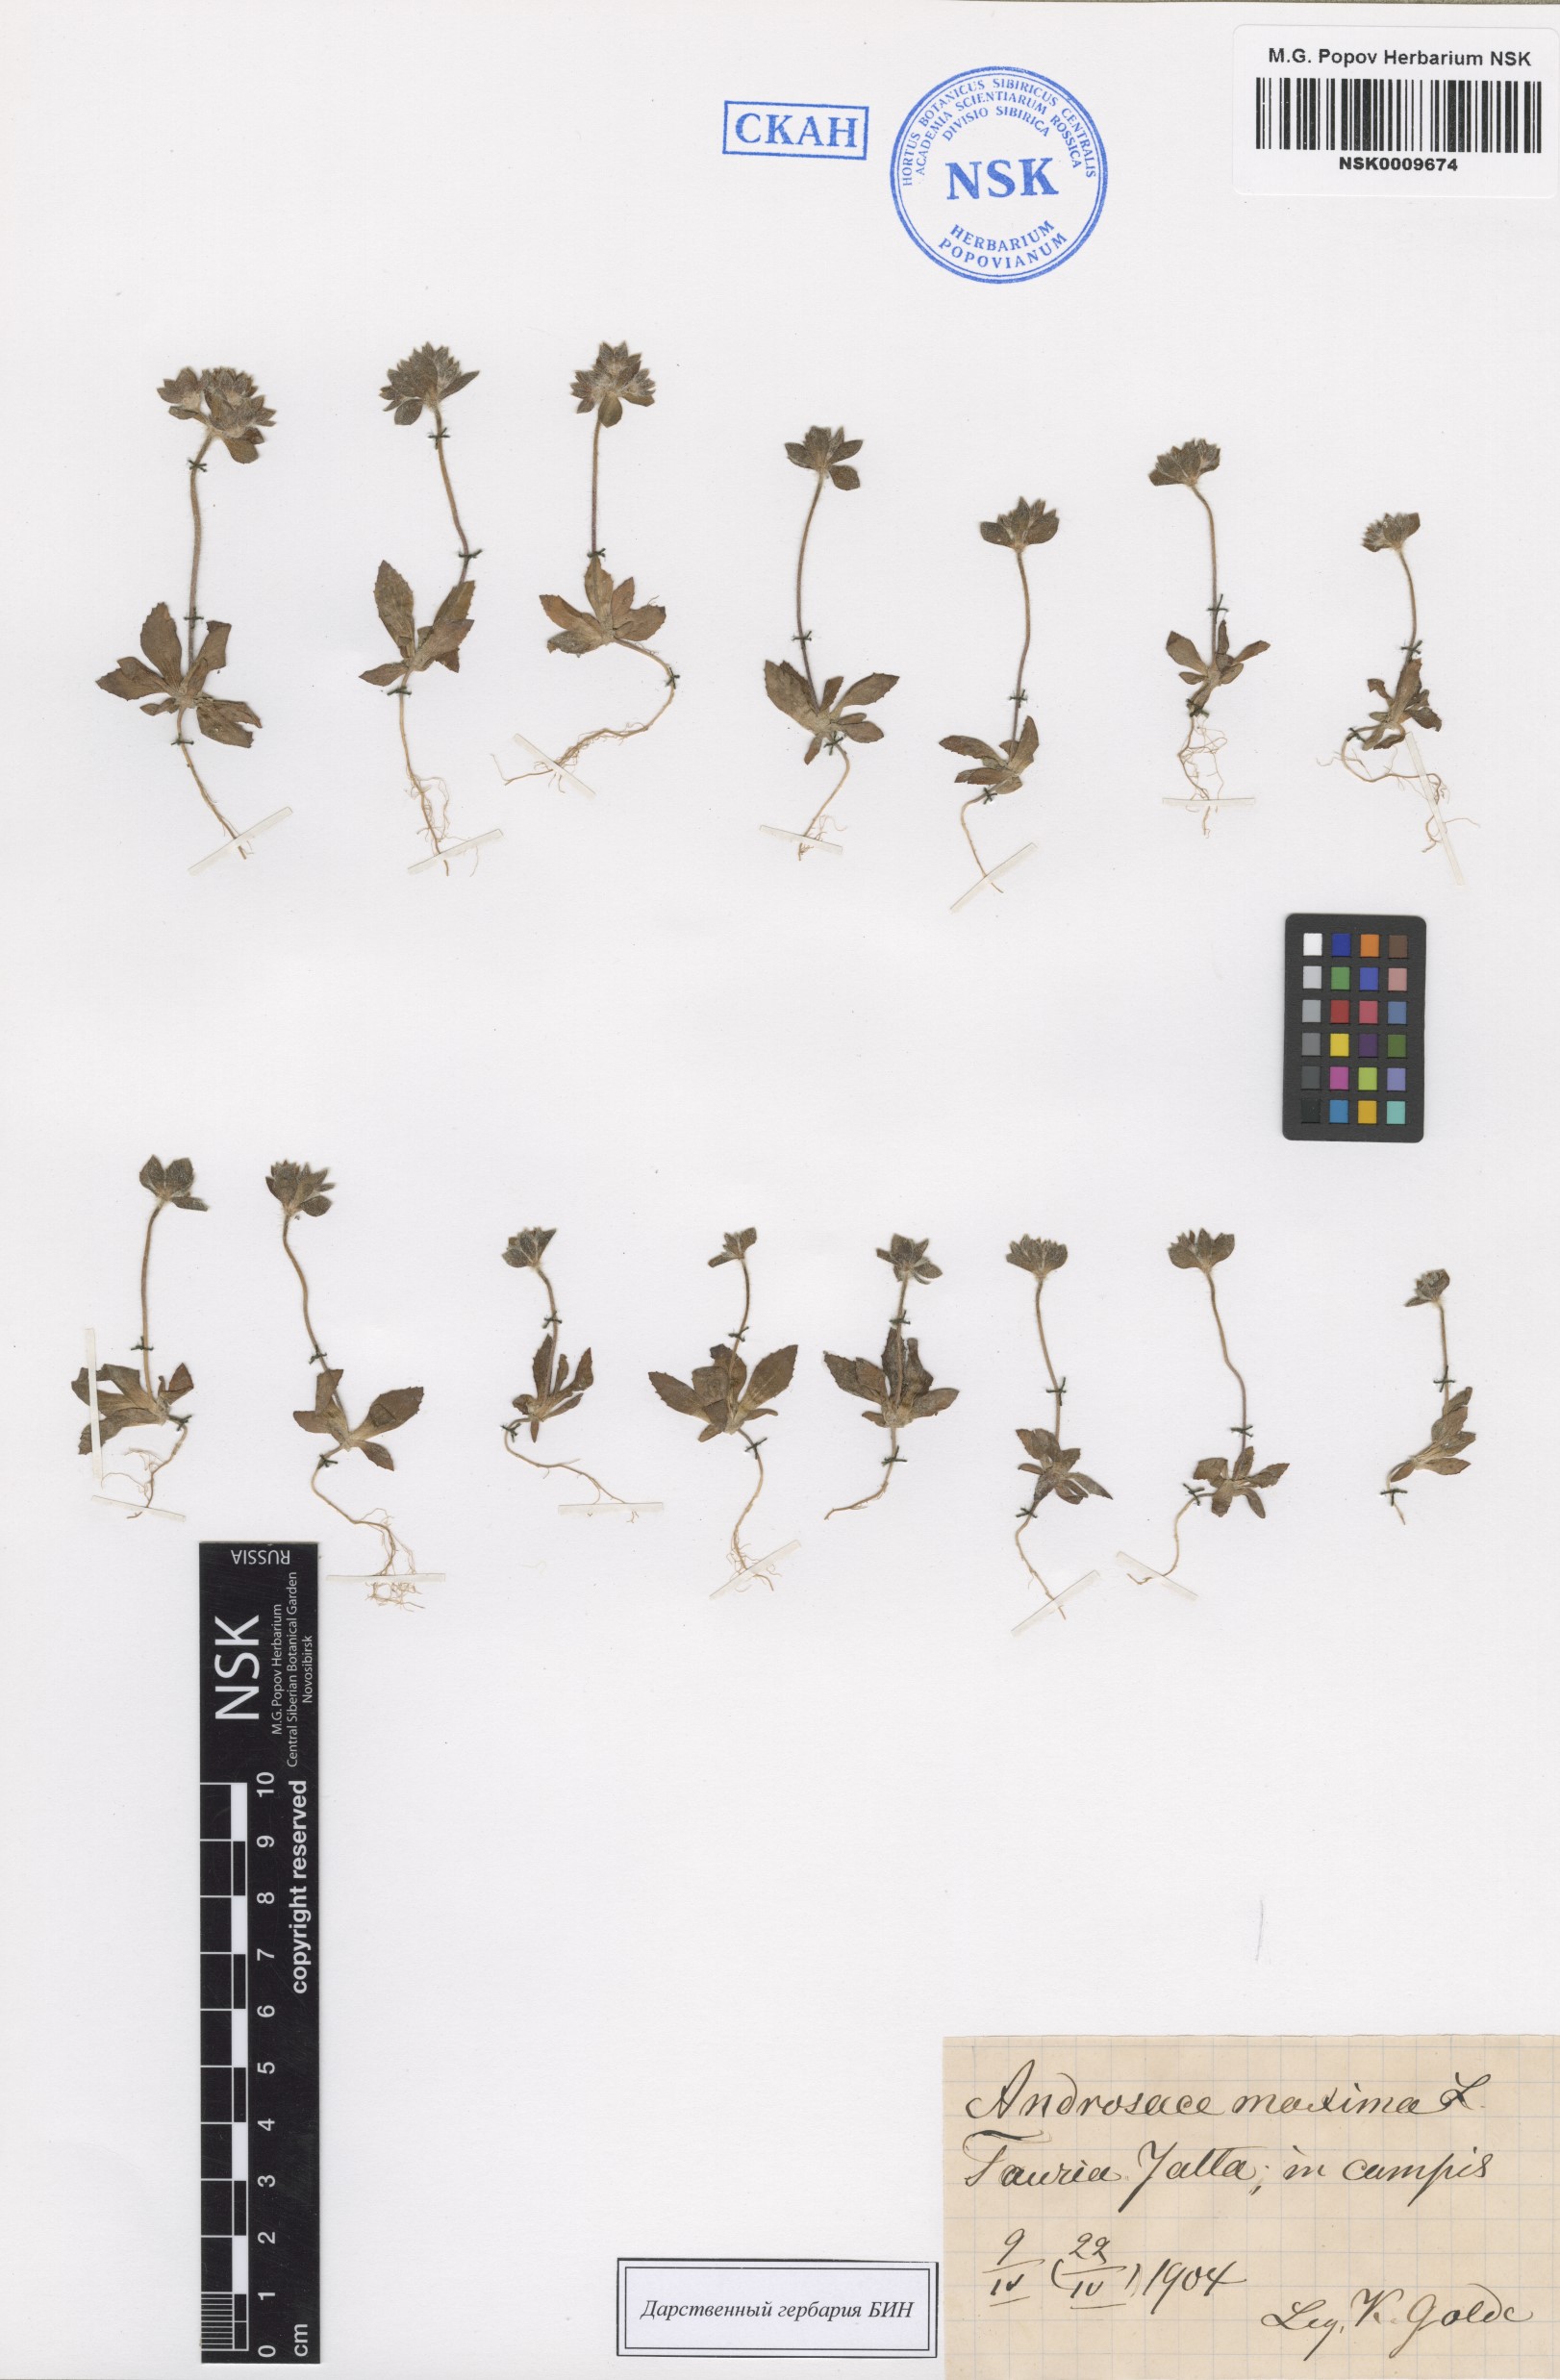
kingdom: Plantae
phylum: Tracheophyta
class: Magnoliopsida
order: Ericales
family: Primulaceae
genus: Androsace
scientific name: Androsace maxima
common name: Annual androsace
